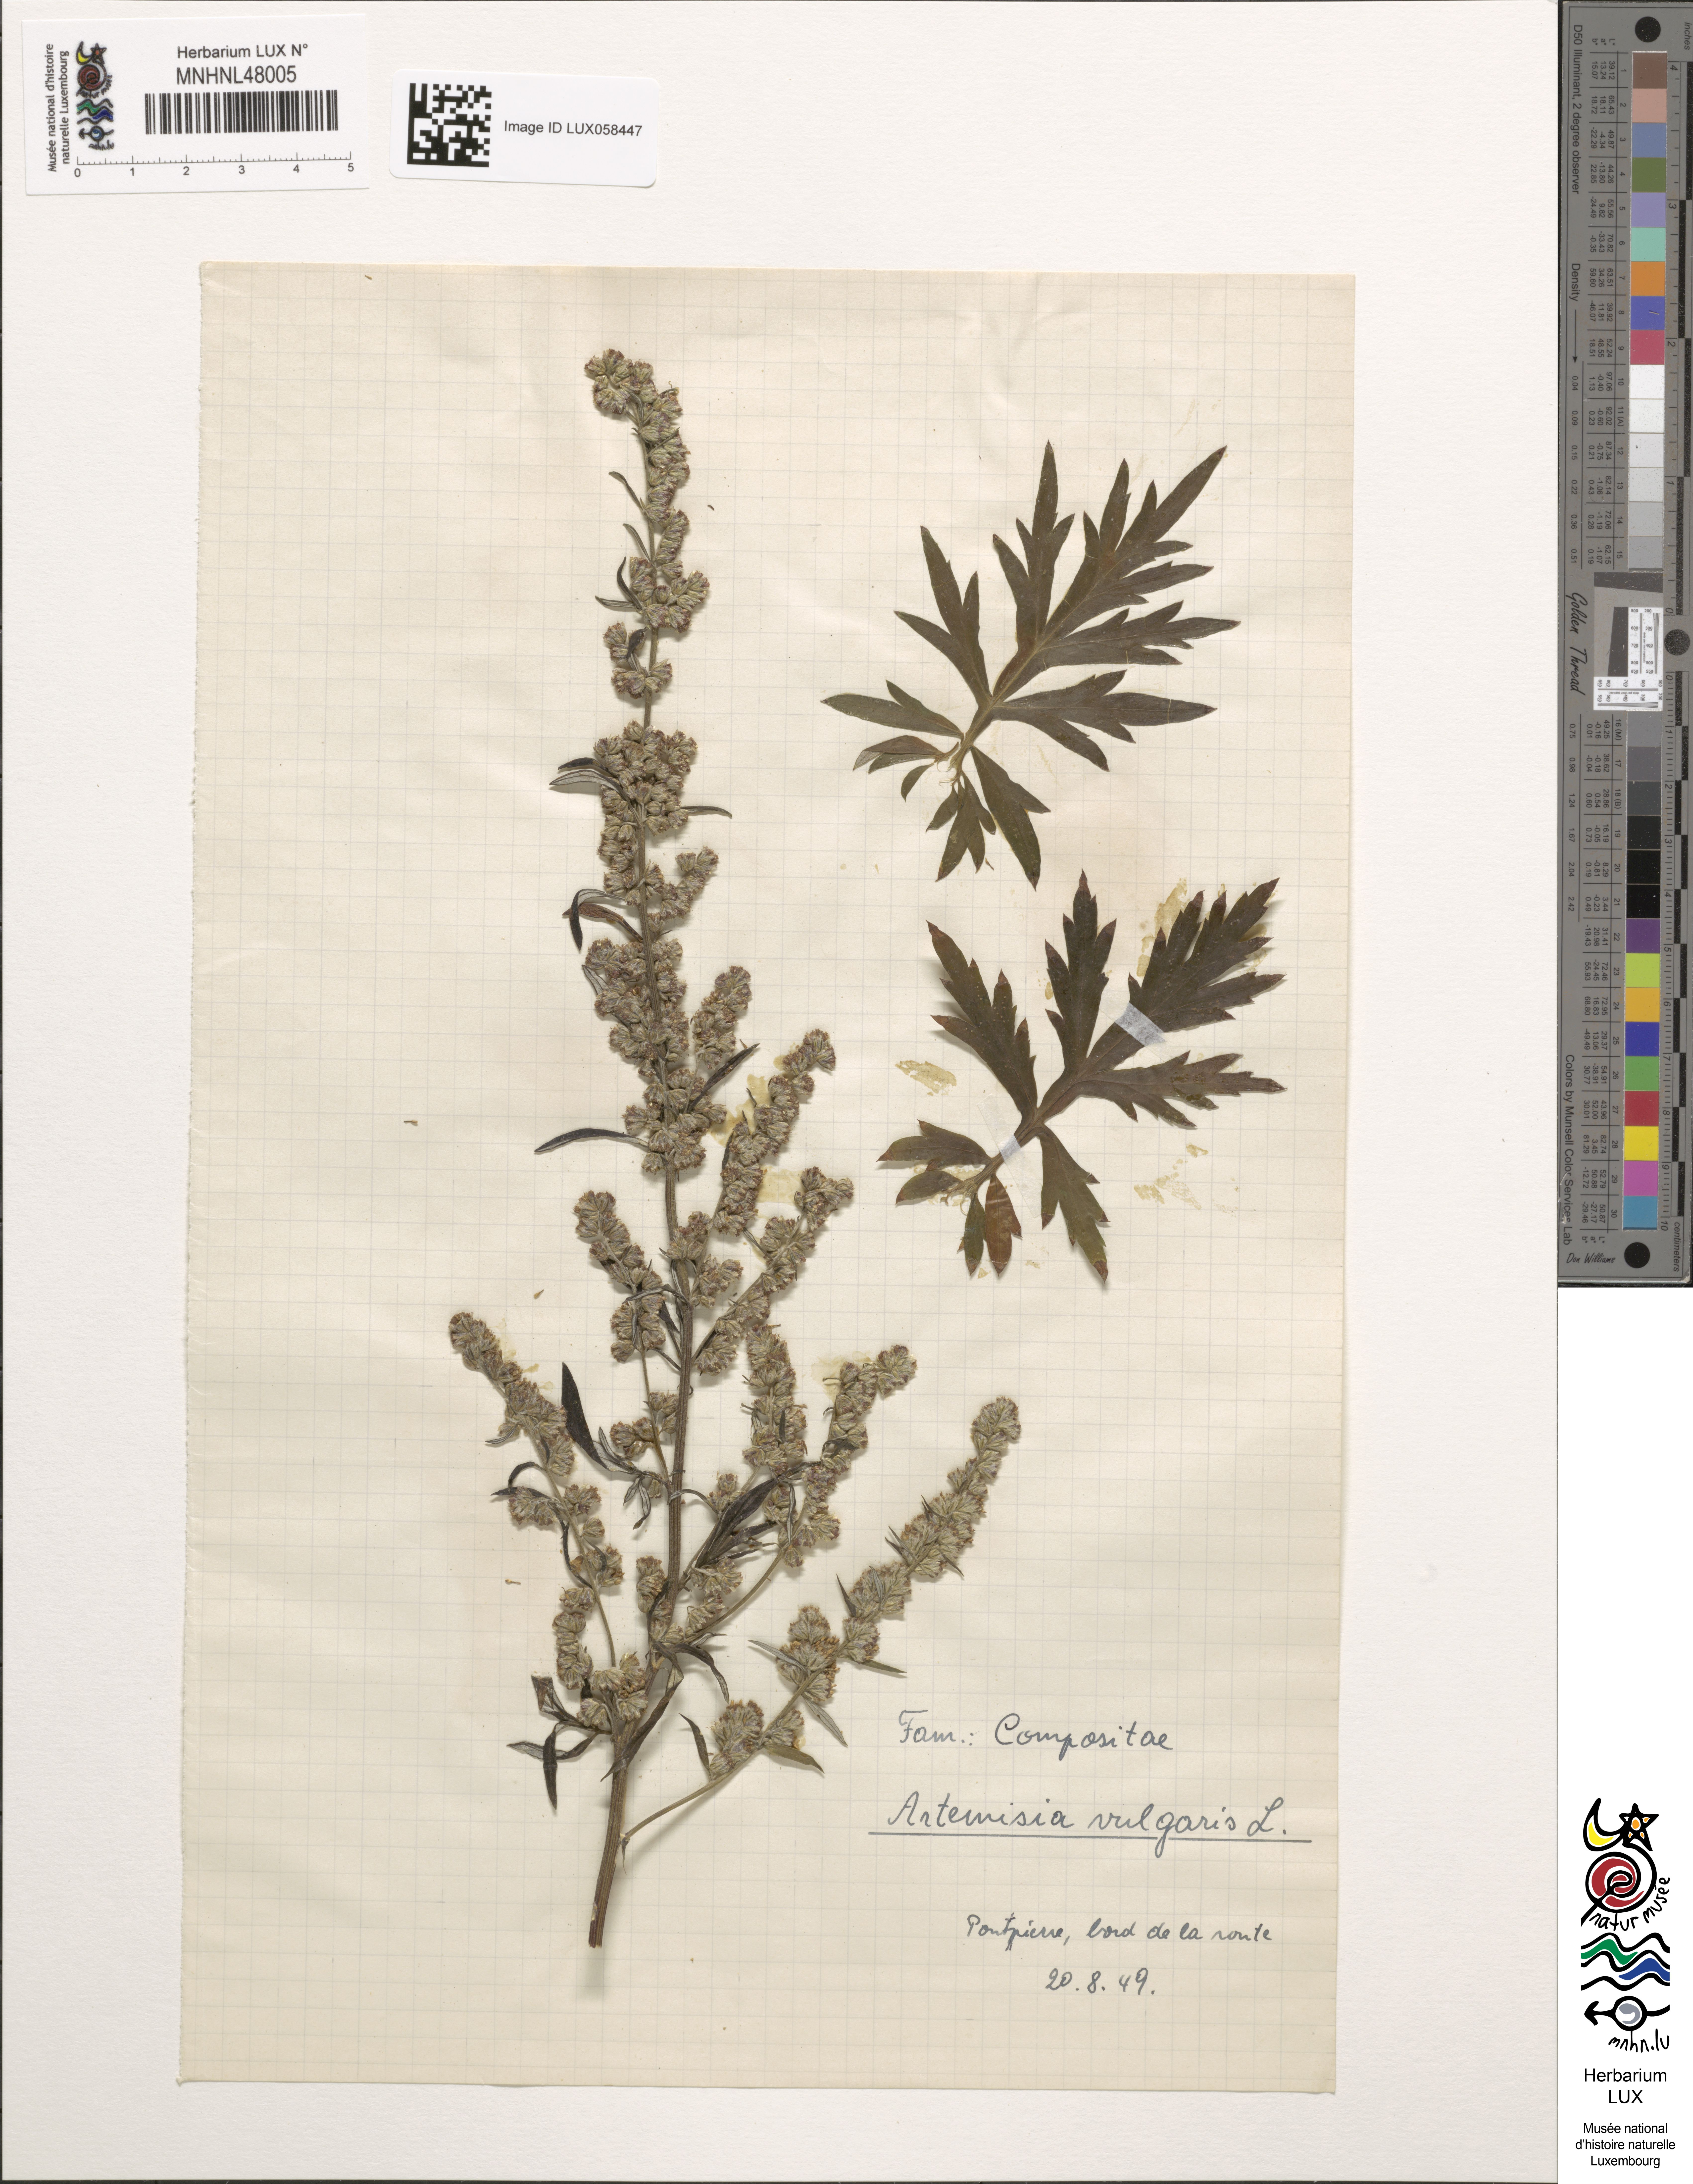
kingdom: Plantae
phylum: Tracheophyta
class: Magnoliopsida
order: Asterales
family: Asteraceae
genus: Artemisia
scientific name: Artemisia vulgaris
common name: Mugwort
